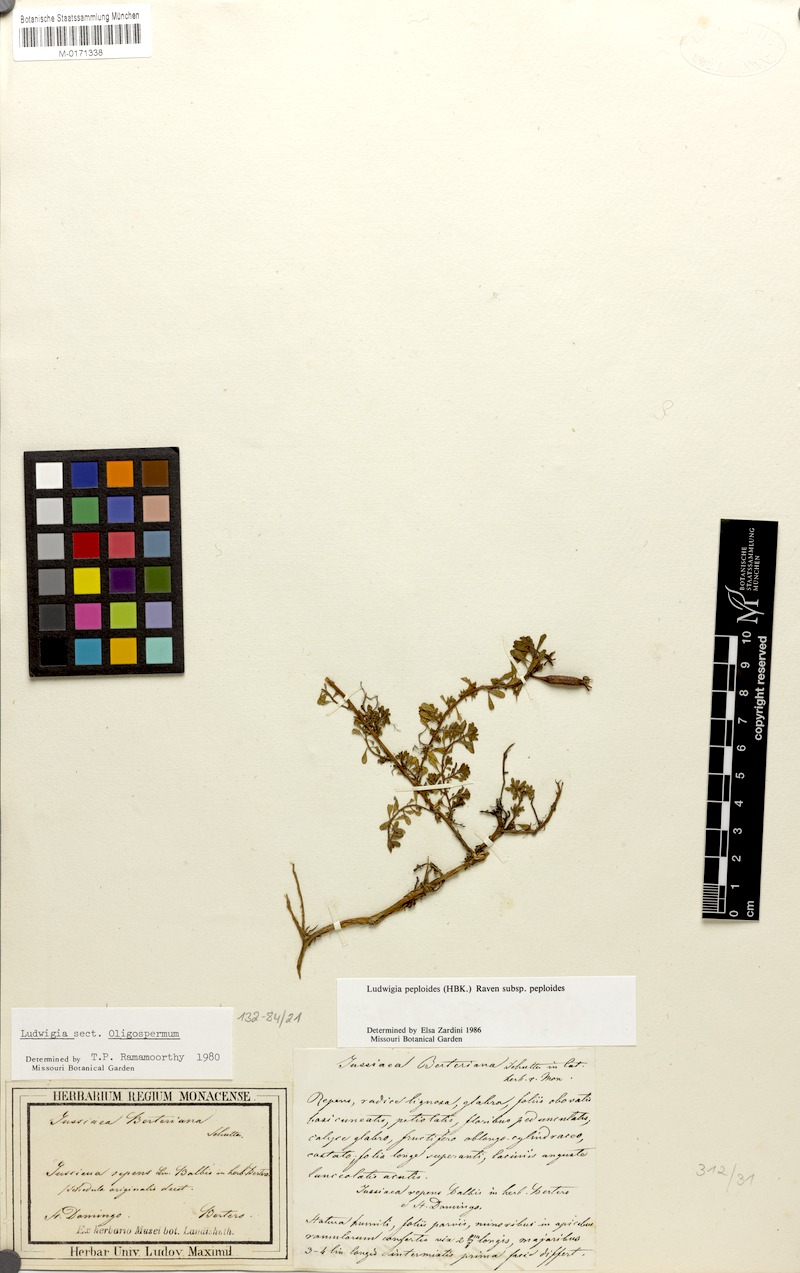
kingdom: Plantae
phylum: Tracheophyta
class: Magnoliopsida
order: Myrtales
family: Onagraceae
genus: Ludwigia
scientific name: Ludwigia peploides
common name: Floating primrose-willow
